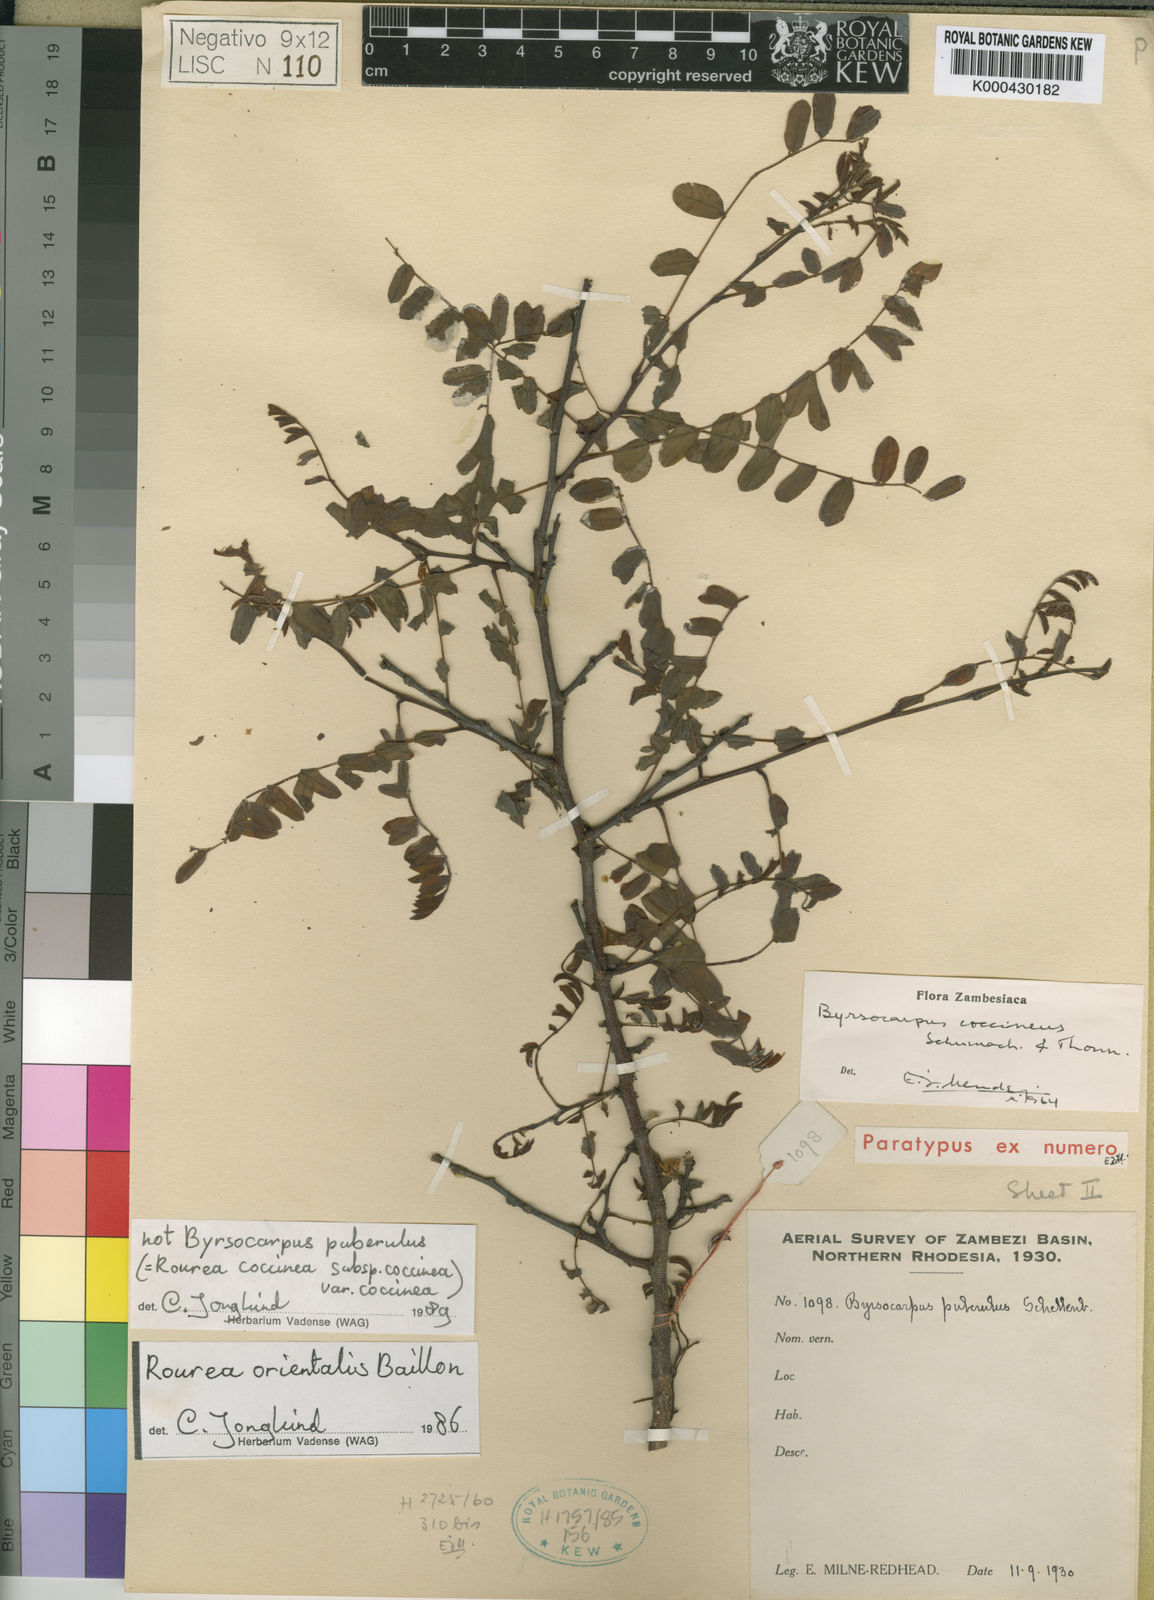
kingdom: Plantae
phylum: Tracheophyta
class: Magnoliopsida
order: Oxalidales
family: Connaraceae
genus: Rourea
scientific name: Rourea coccinea
